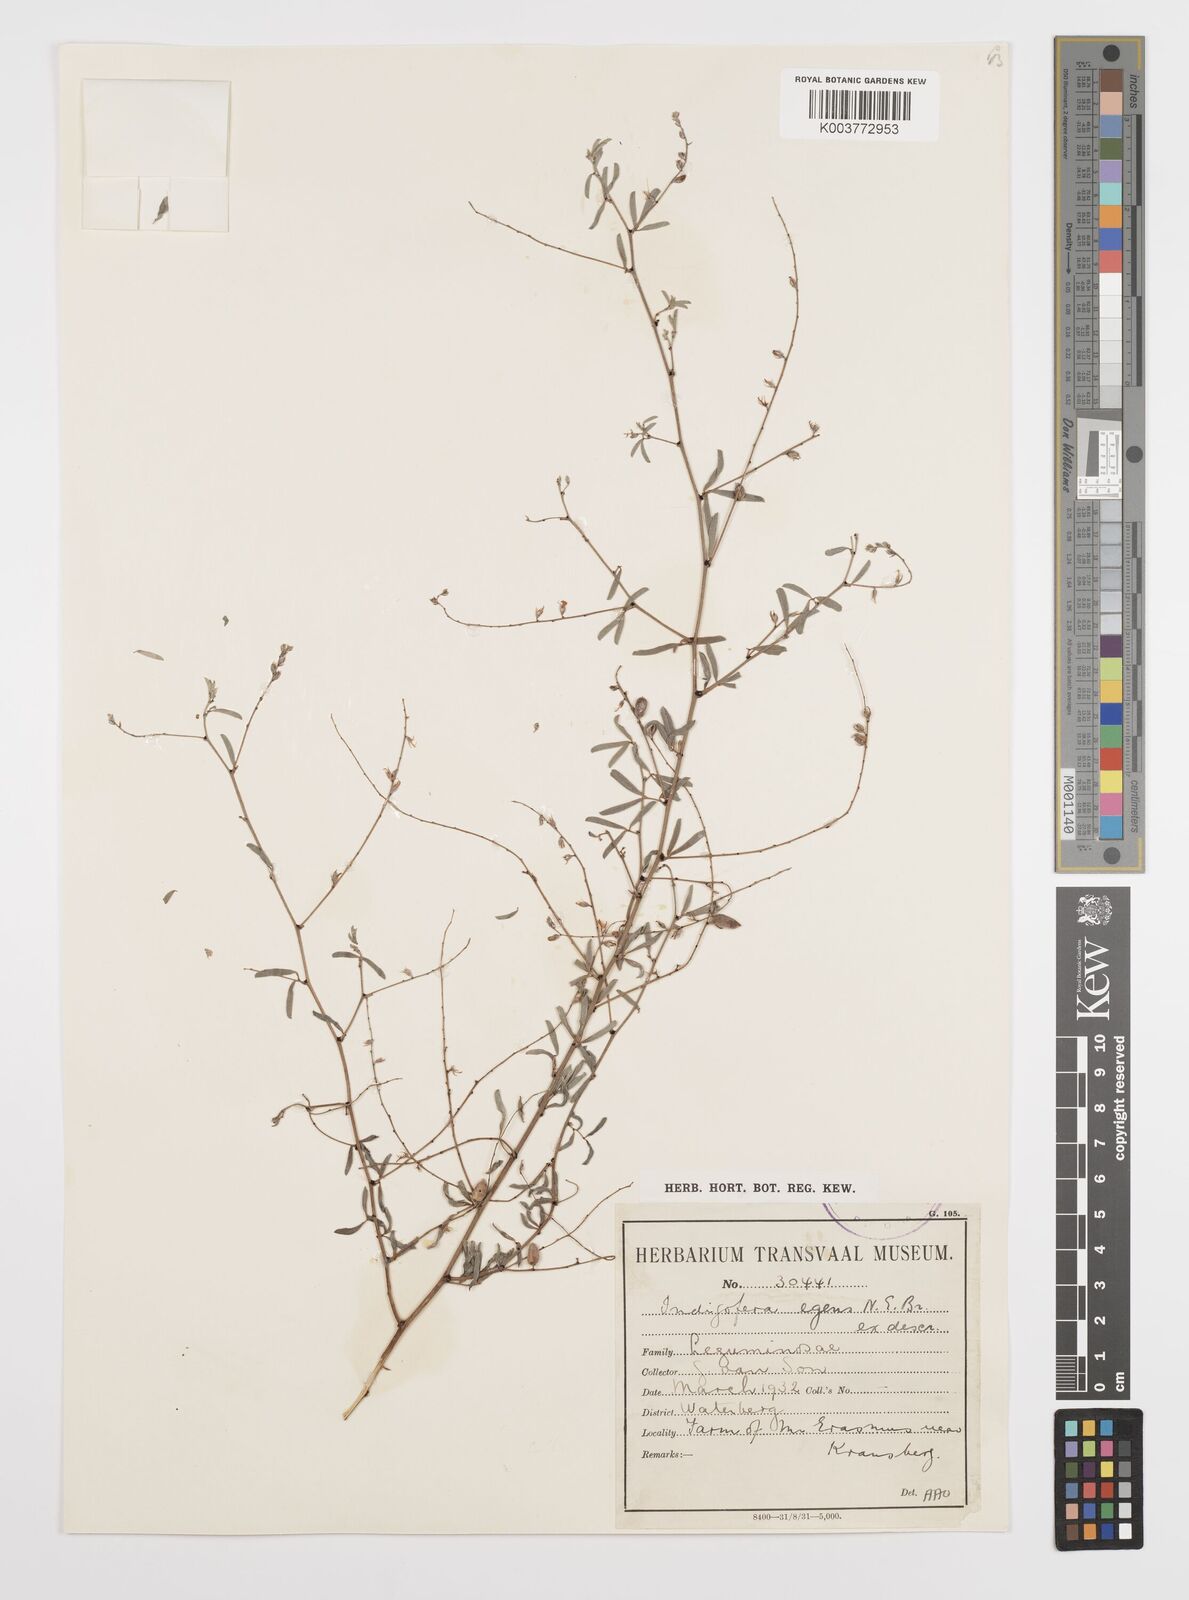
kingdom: Plantae
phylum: Tracheophyta
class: Magnoliopsida
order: Fabales
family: Fabaceae
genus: Indigofera
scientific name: Indigofera
